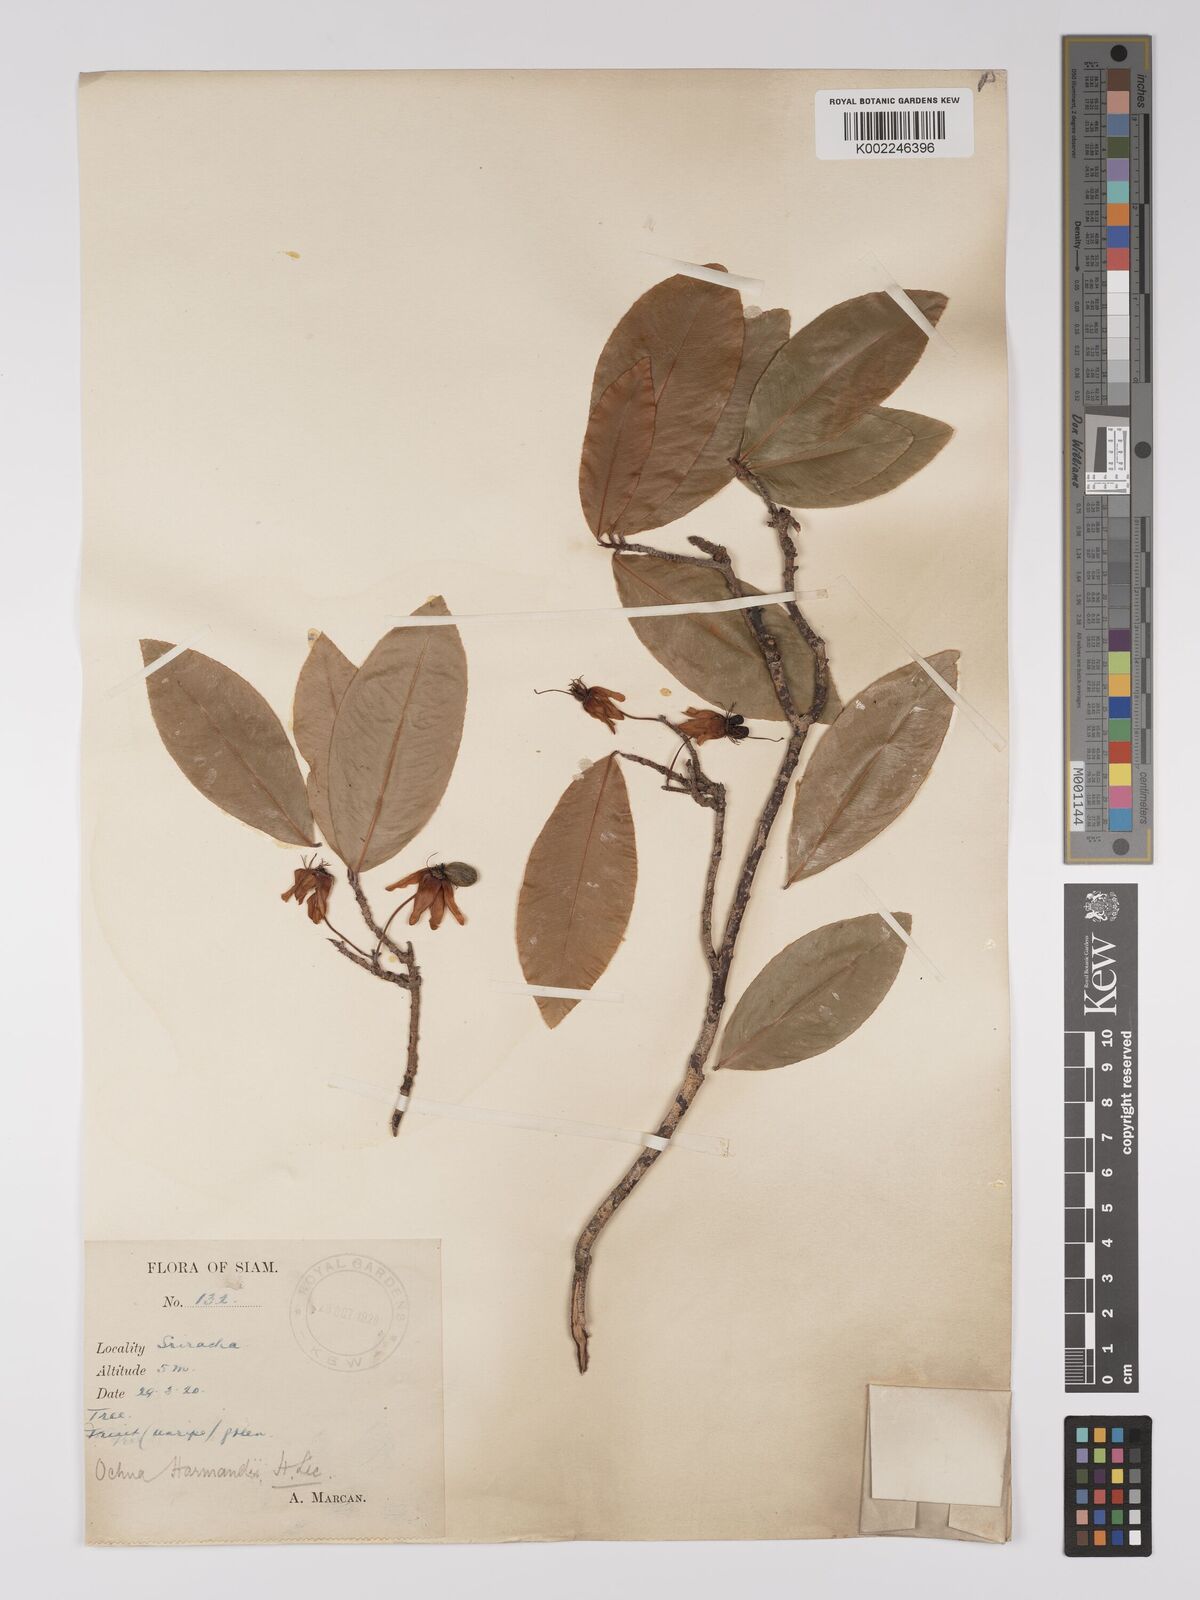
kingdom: Plantae
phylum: Tracheophyta
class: Magnoliopsida
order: Malpighiales
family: Ochnaceae
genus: Ochna
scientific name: Ochna integerrima
